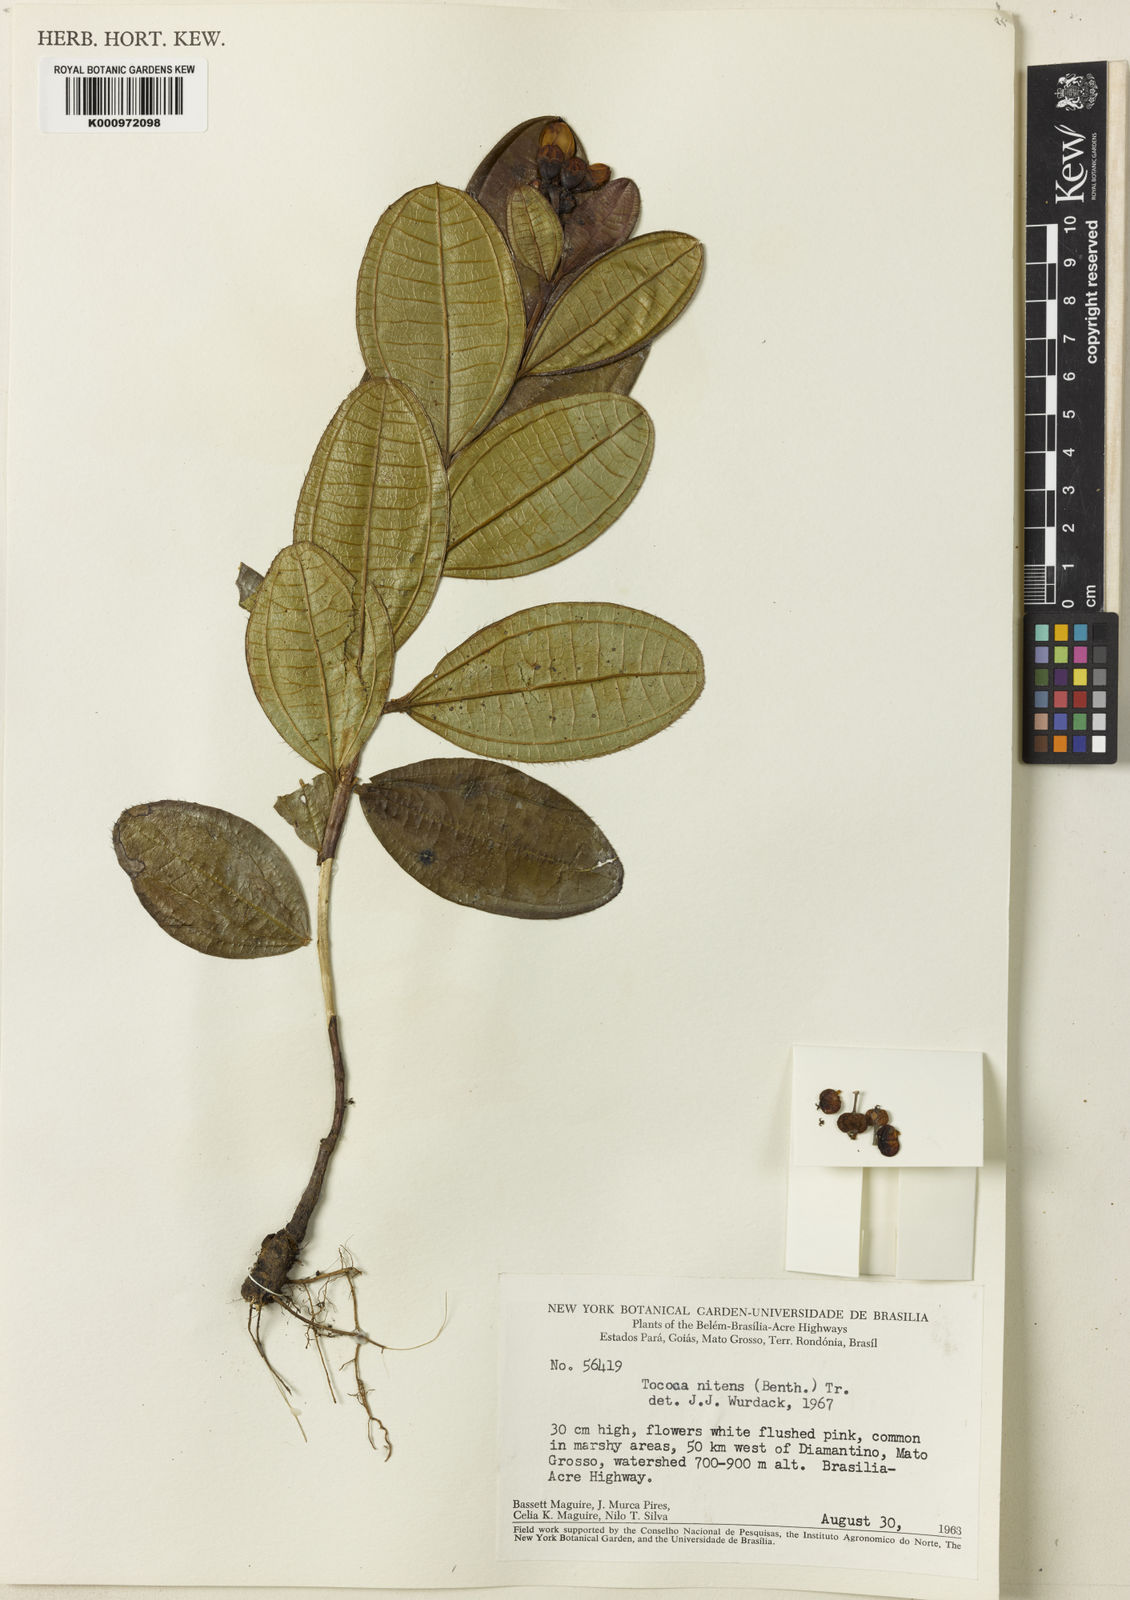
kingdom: Plantae
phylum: Tracheophyta
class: Magnoliopsida
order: Myrtales
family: Melastomataceae
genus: Miconia
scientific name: Miconia nitens
